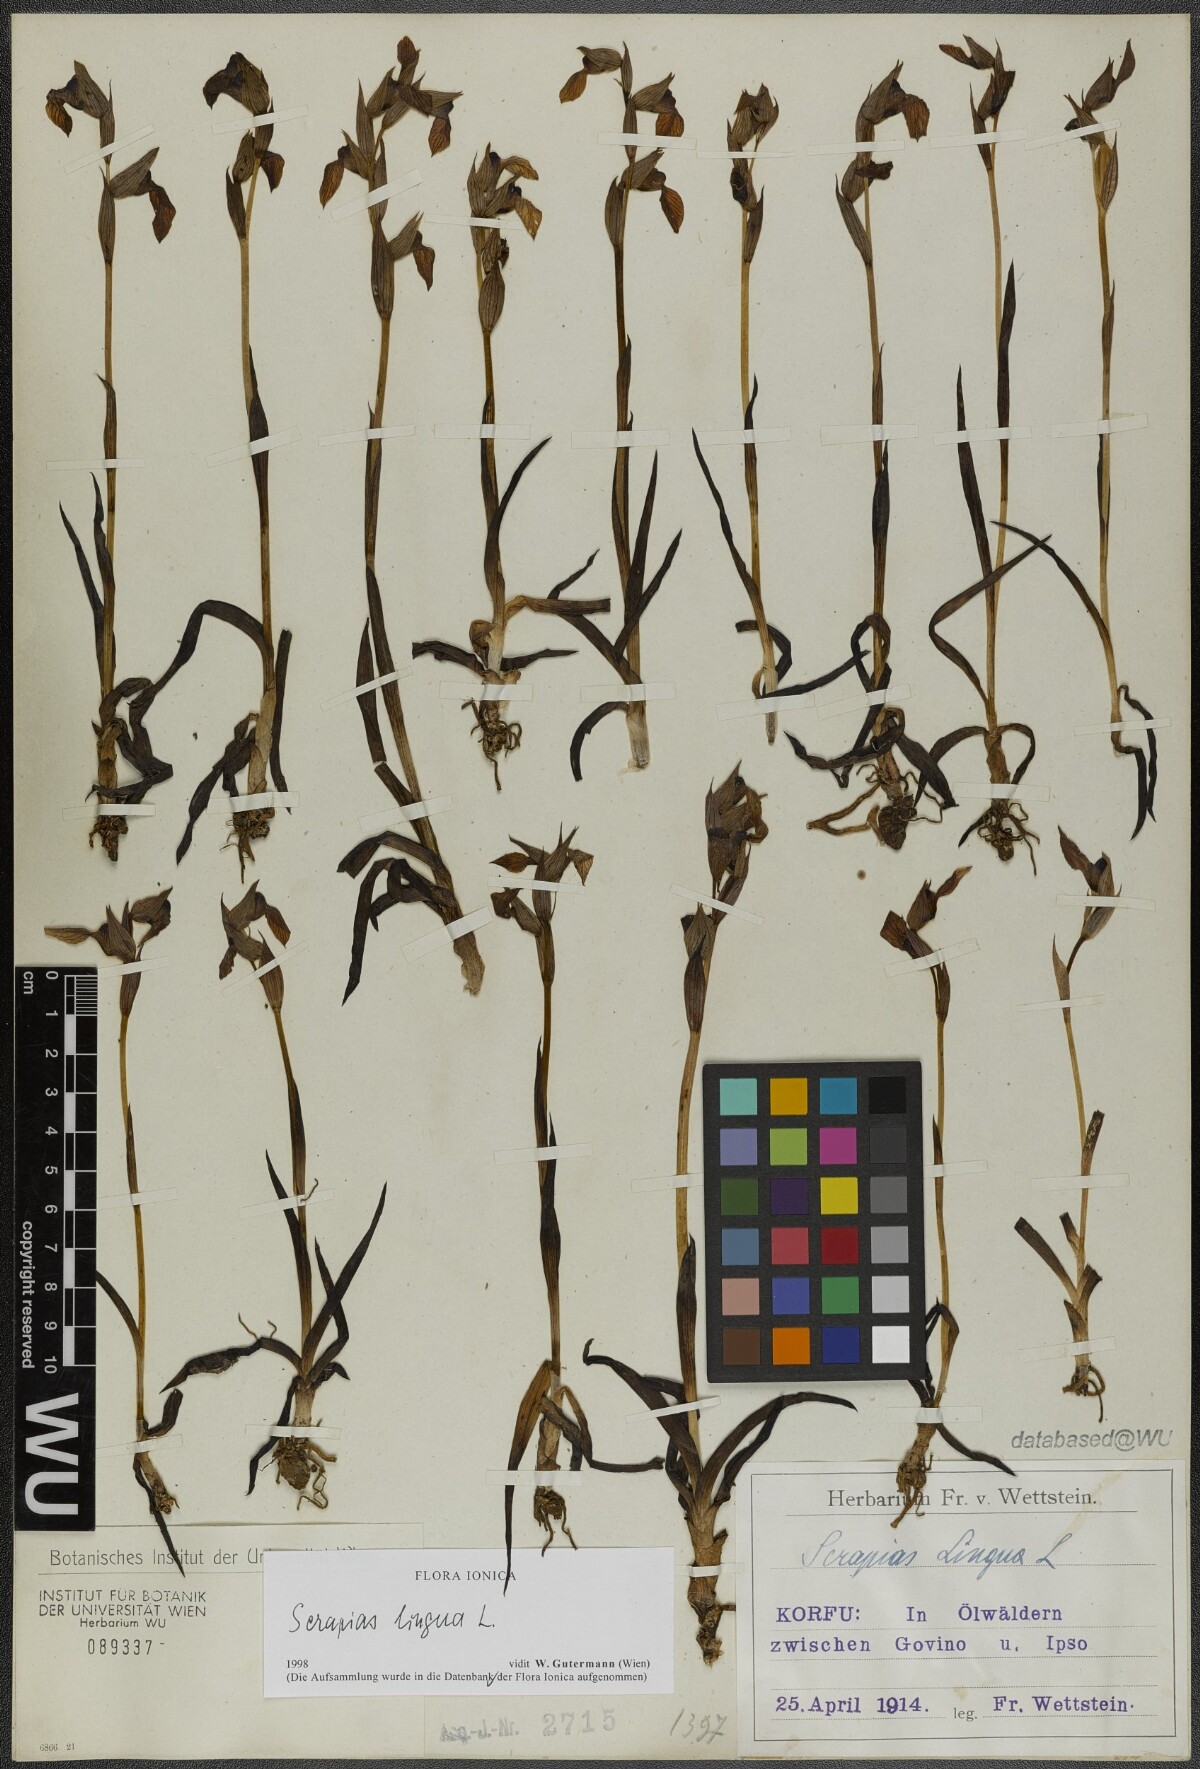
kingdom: Plantae
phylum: Tracheophyta
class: Liliopsida
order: Asparagales
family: Orchidaceae
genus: Serapias
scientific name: Serapias lingua
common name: Tongue-orchid
